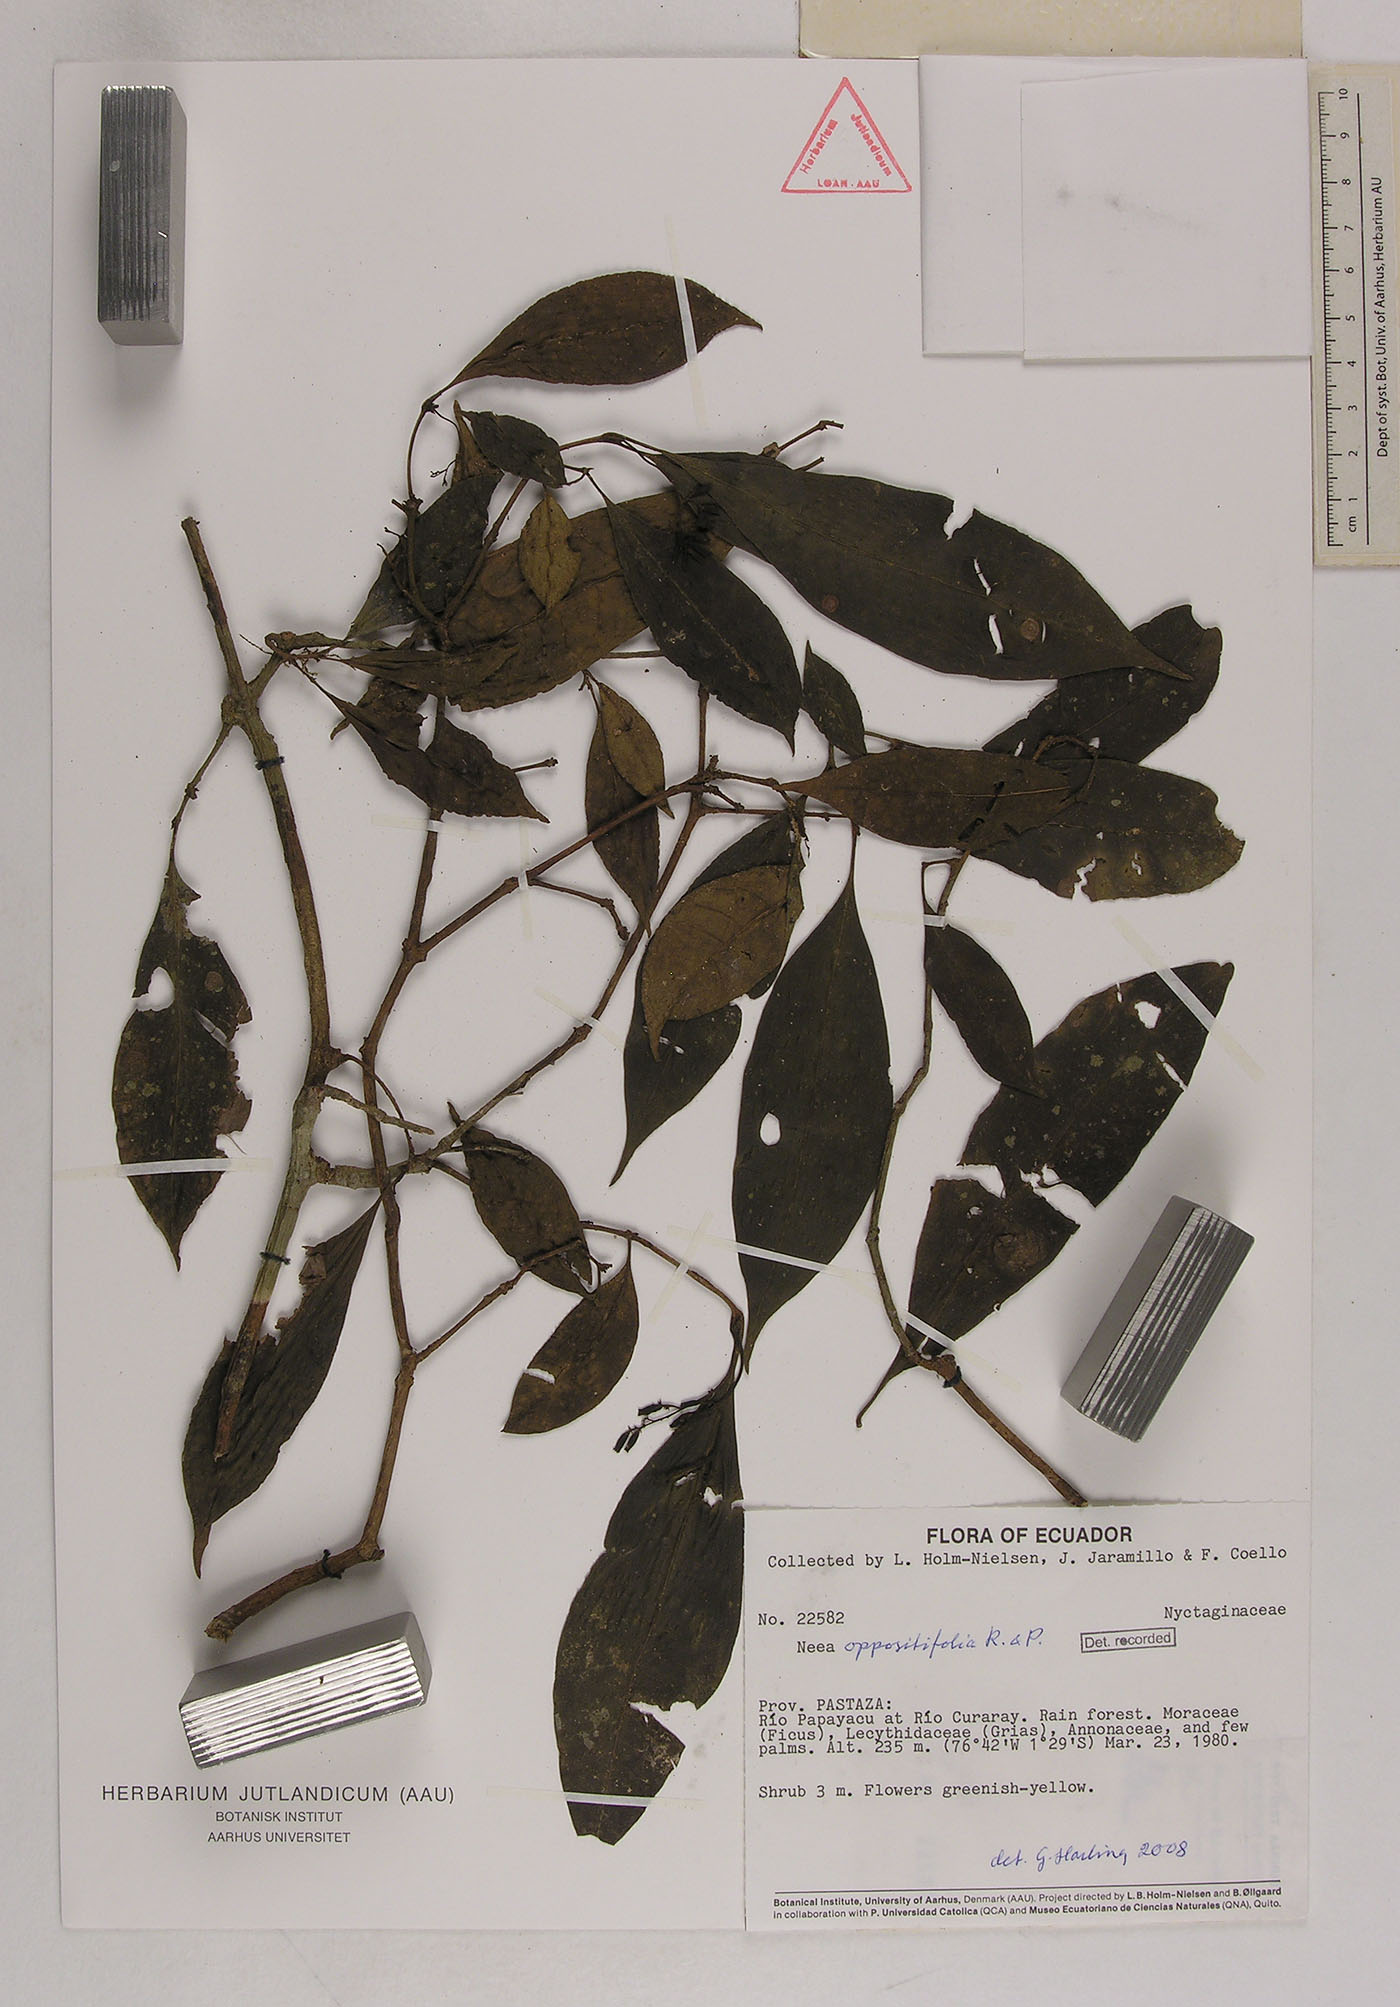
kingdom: Plantae
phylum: Tracheophyta
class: Magnoliopsida
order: Caryophyllales
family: Nyctaginaceae
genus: Neea
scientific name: Neea oppositifolia
